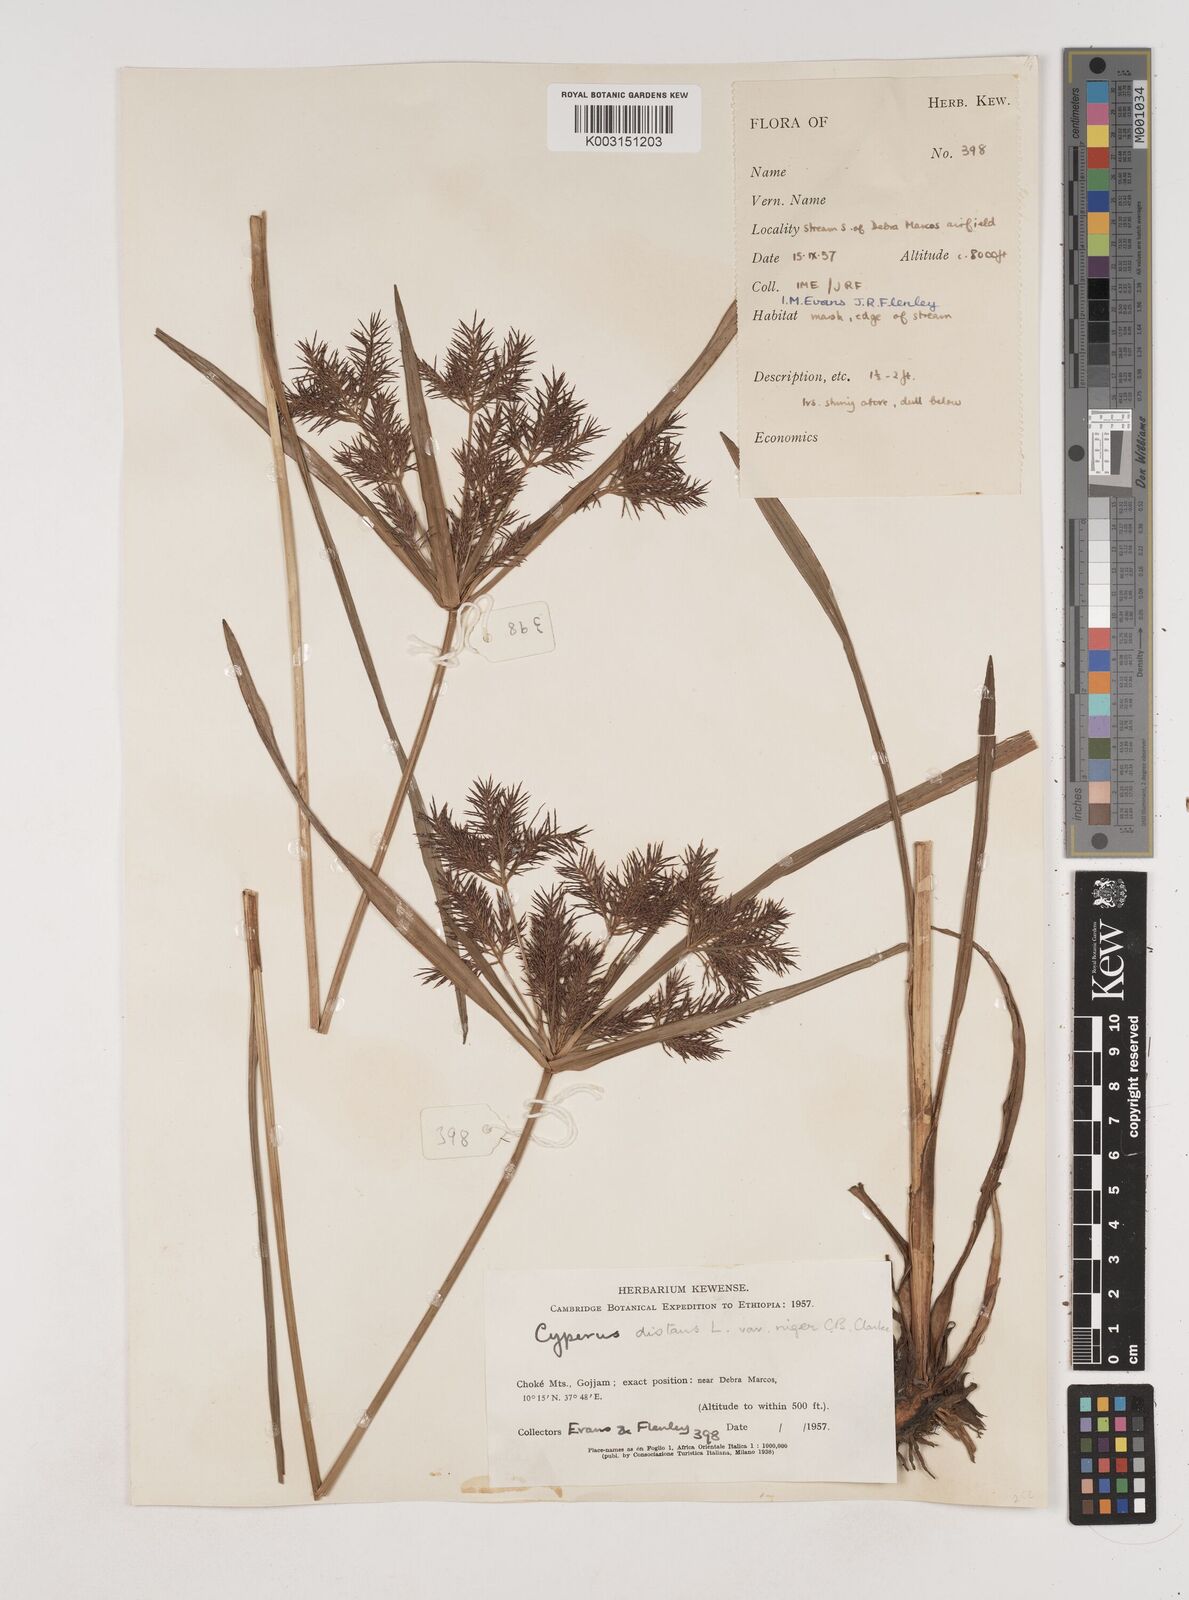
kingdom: Plantae
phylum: Tracheophyta
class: Liliopsida
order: Poales
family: Cyperaceae
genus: Cyperus
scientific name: Cyperus distans
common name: Slender cyperus
